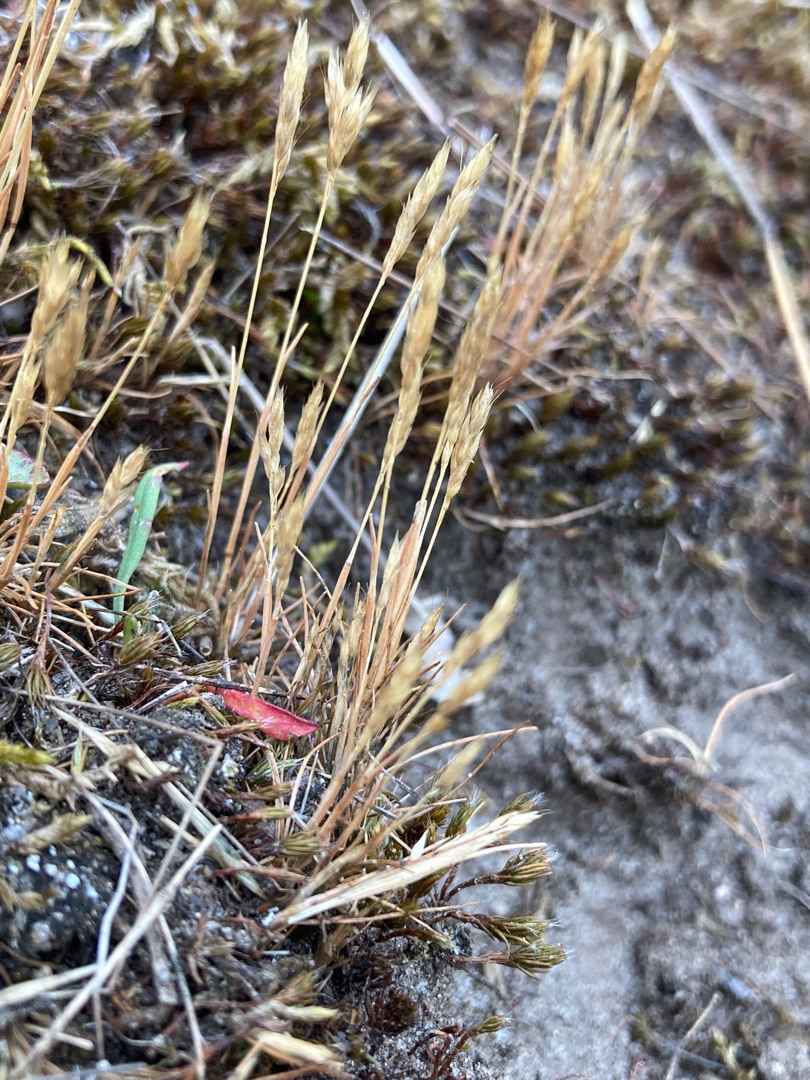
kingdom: Plantae
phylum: Tracheophyta
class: Liliopsida
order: Poales
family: Poaceae
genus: Aira
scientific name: Aira praecox
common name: Tidlig dværgbunke
